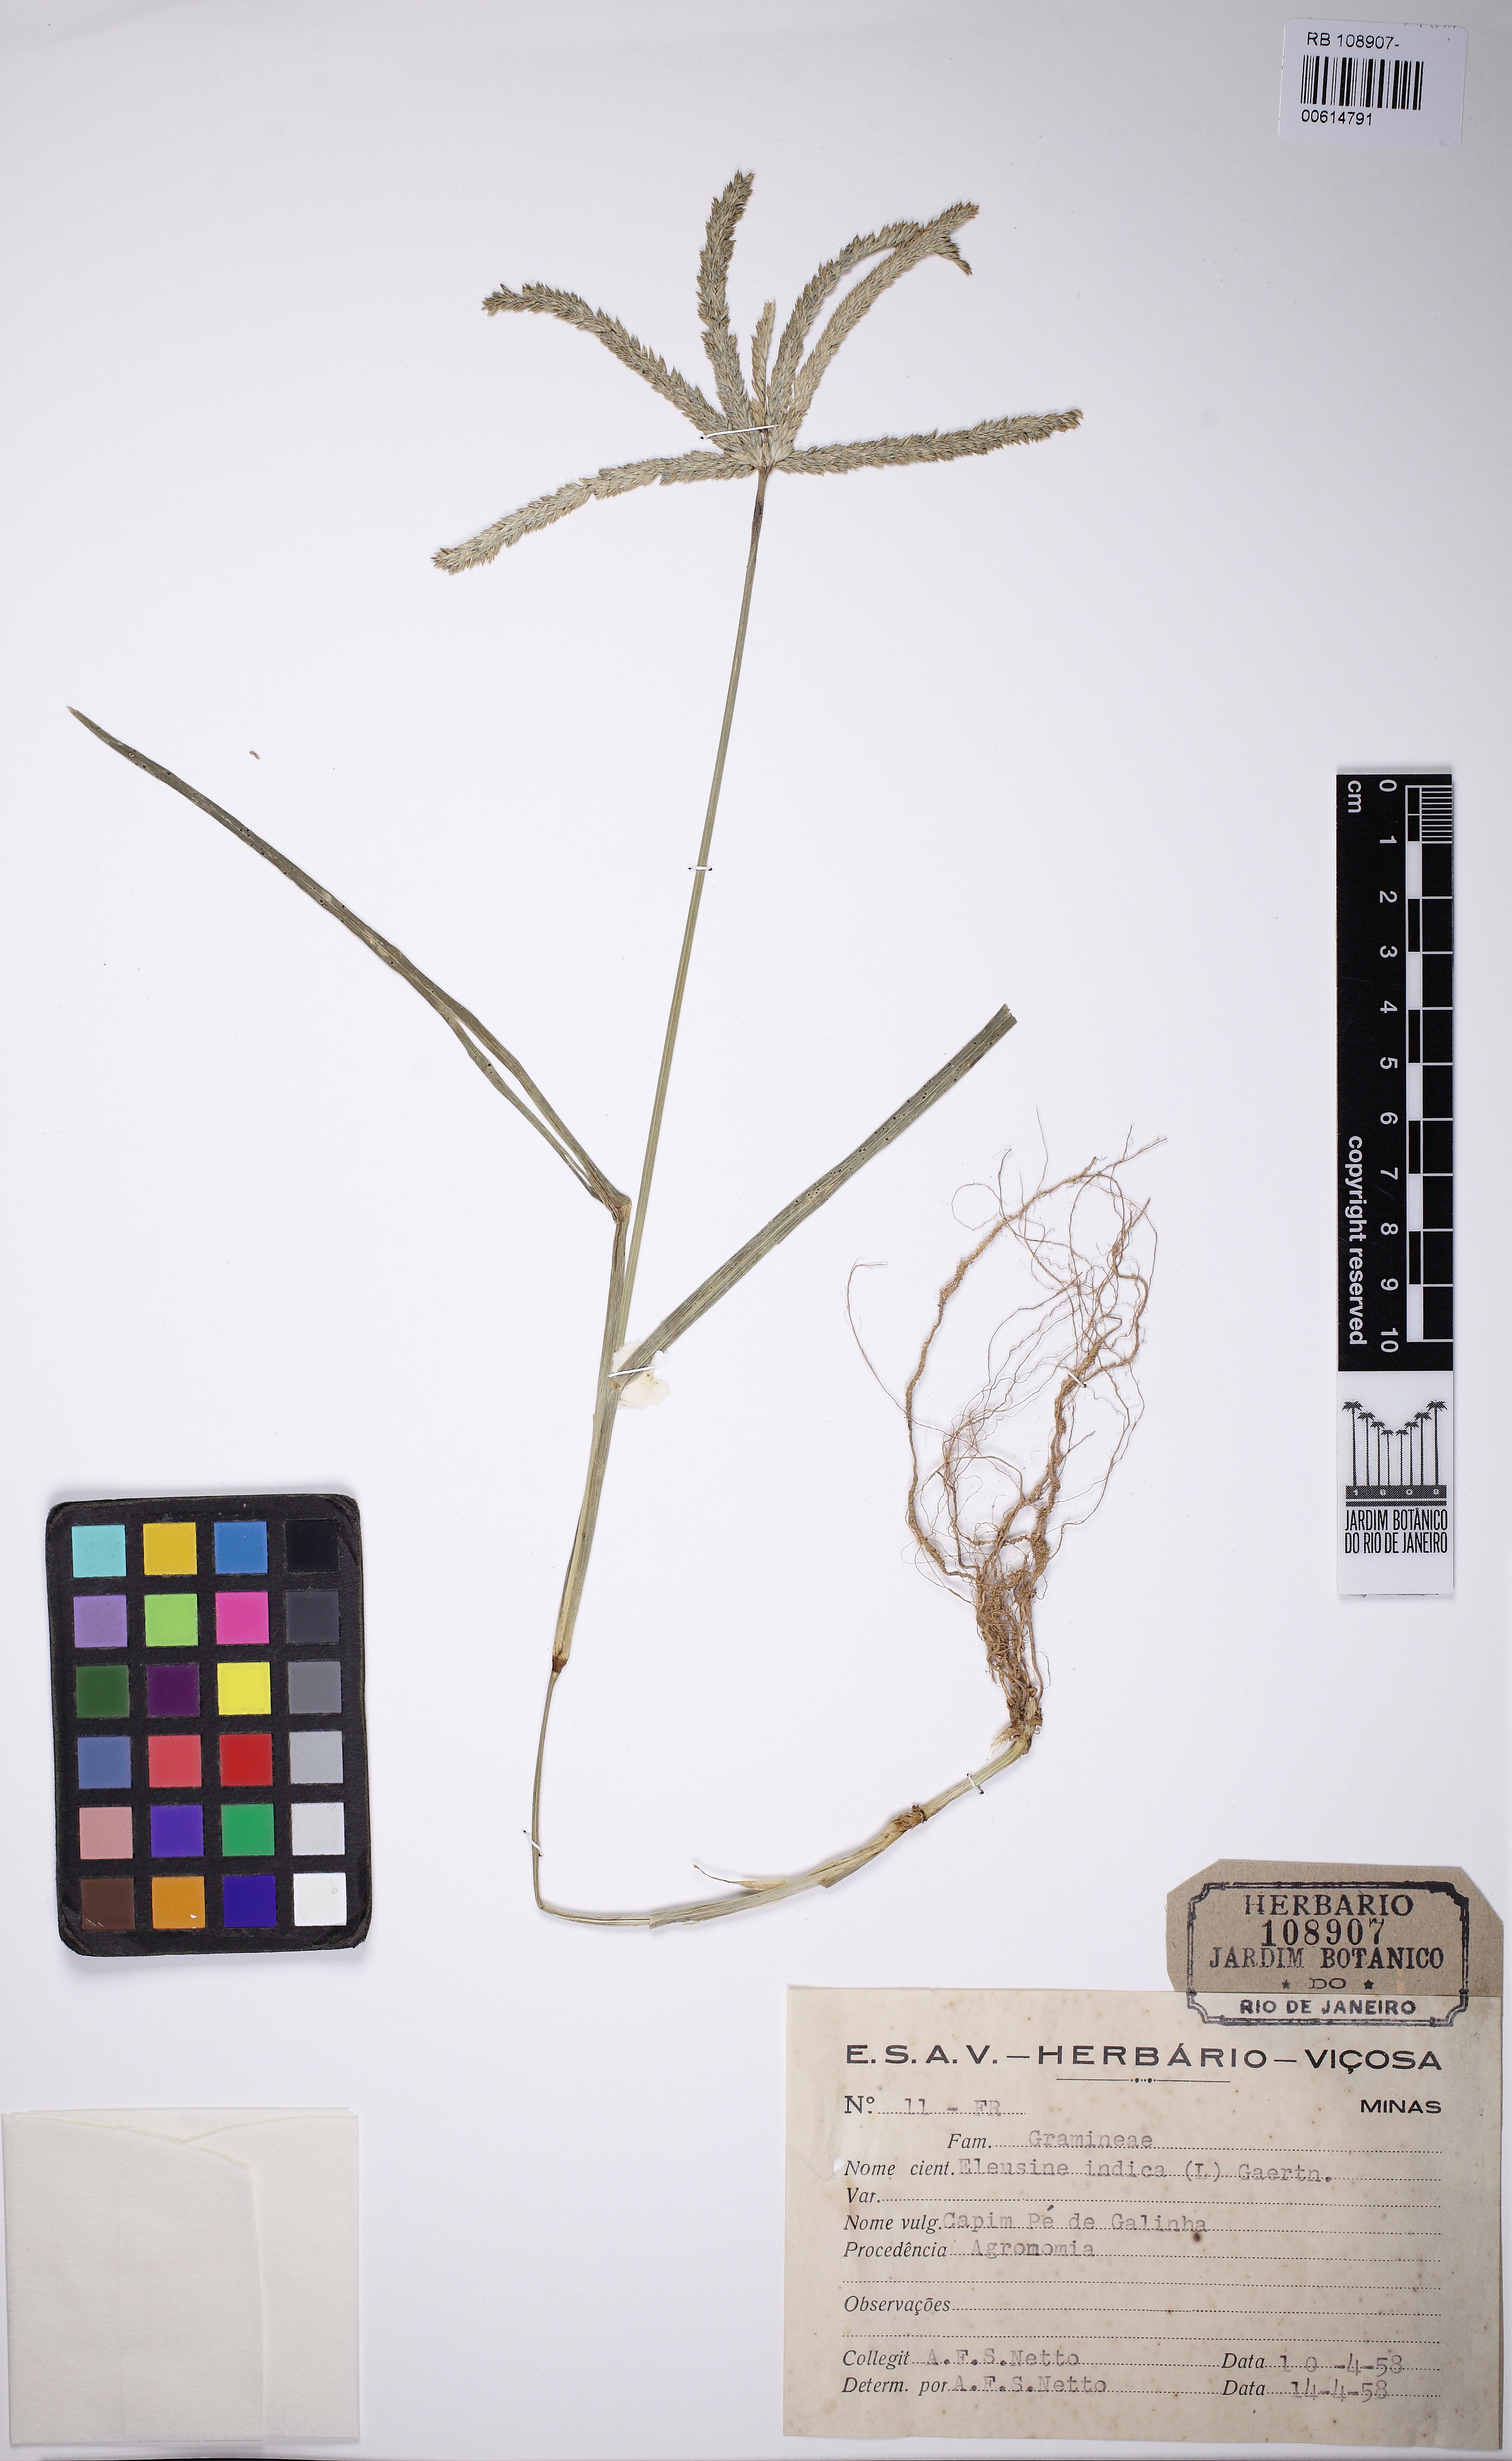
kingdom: Plantae
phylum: Tracheophyta
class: Liliopsida
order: Poales
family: Poaceae
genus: Eleusine
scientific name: Eleusine indica
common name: Yard-grass
